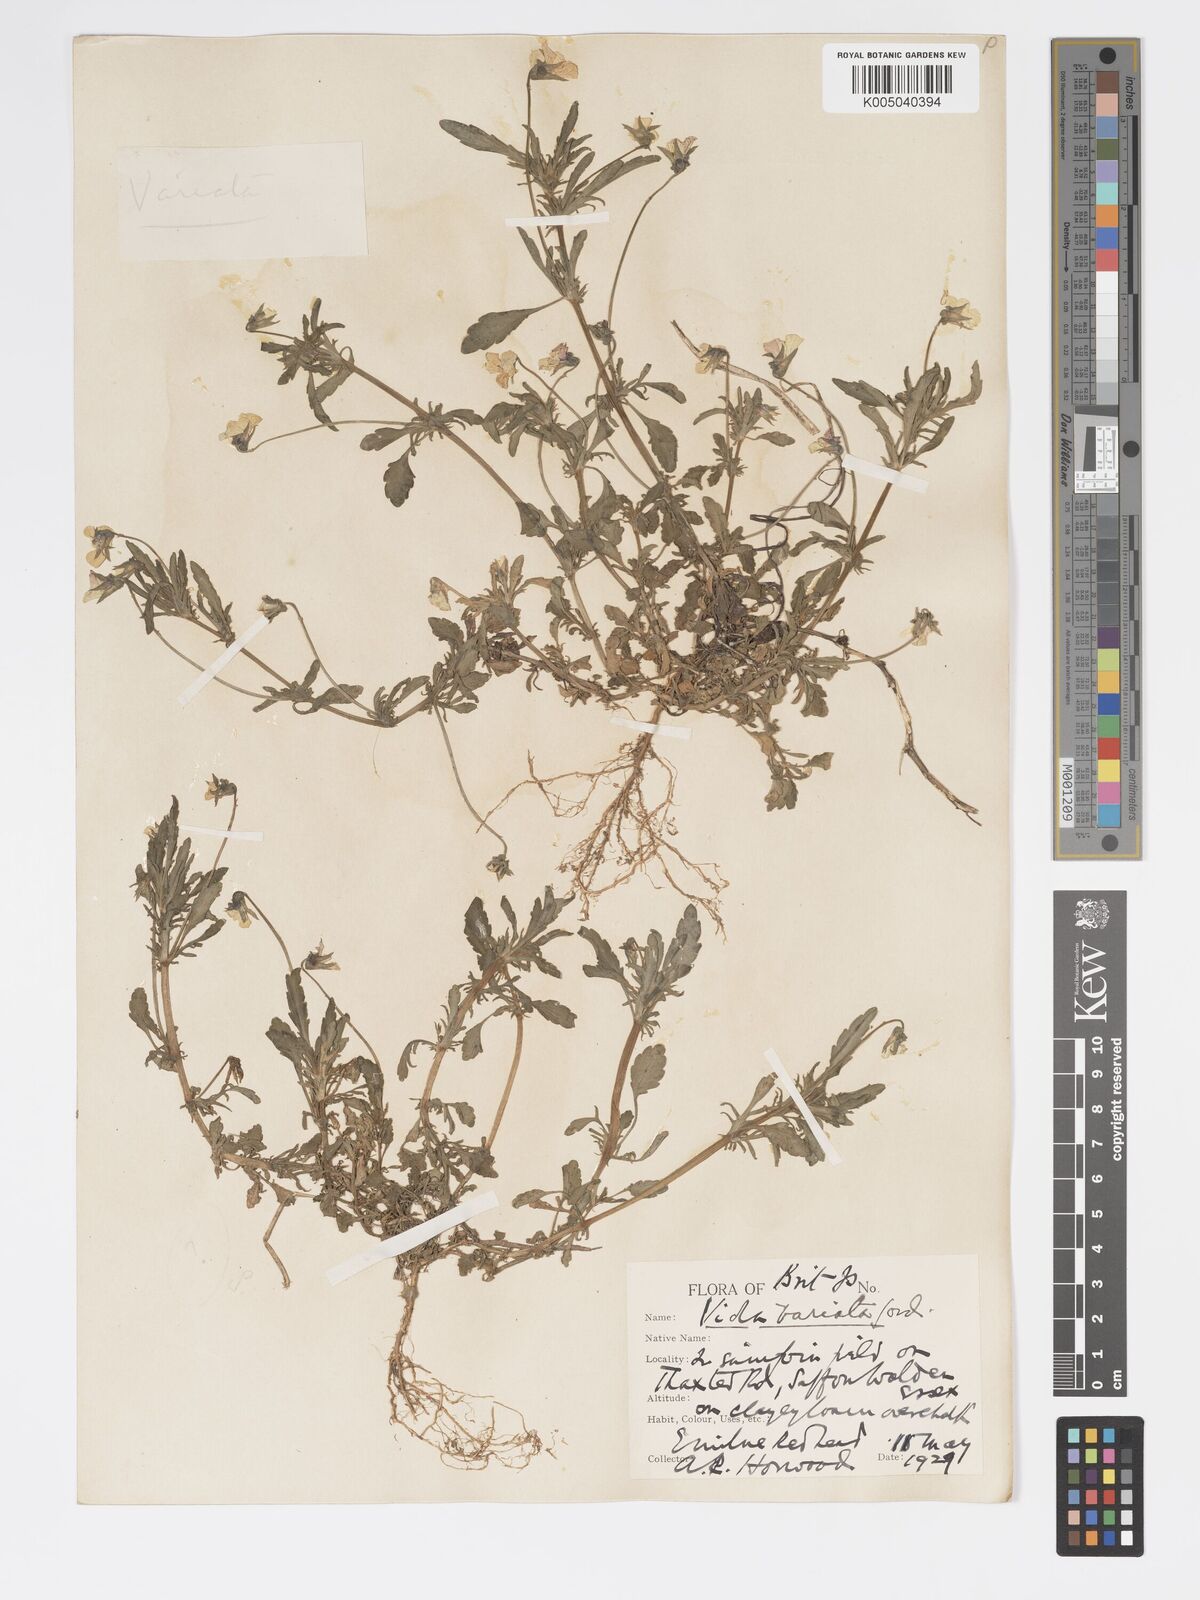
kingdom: Plantae
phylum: Tracheophyta
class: Magnoliopsida
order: Malpighiales
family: Violaceae
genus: Viola
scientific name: Viola arvensis
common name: Field pansy
